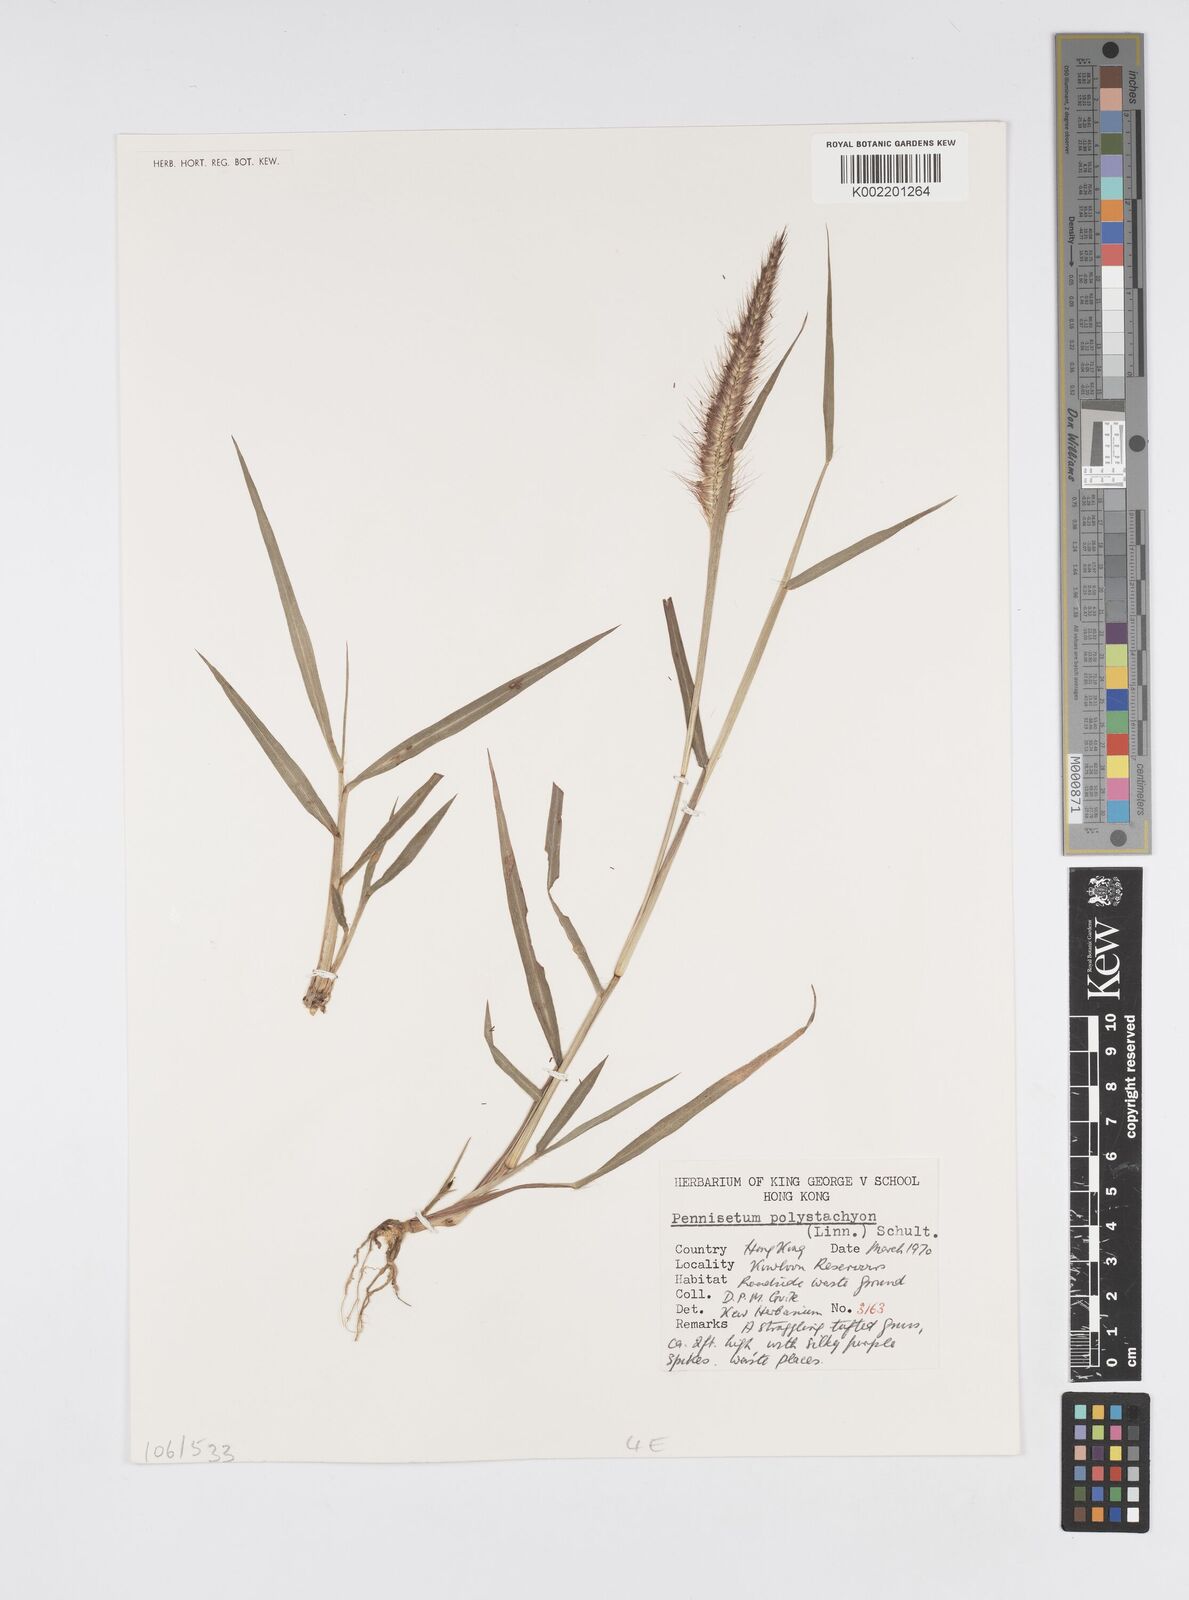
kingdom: Plantae
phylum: Tracheophyta
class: Liliopsida
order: Poales
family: Poaceae
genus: Setaria
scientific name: Setaria parviflora
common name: Knotroot bristle-grass
